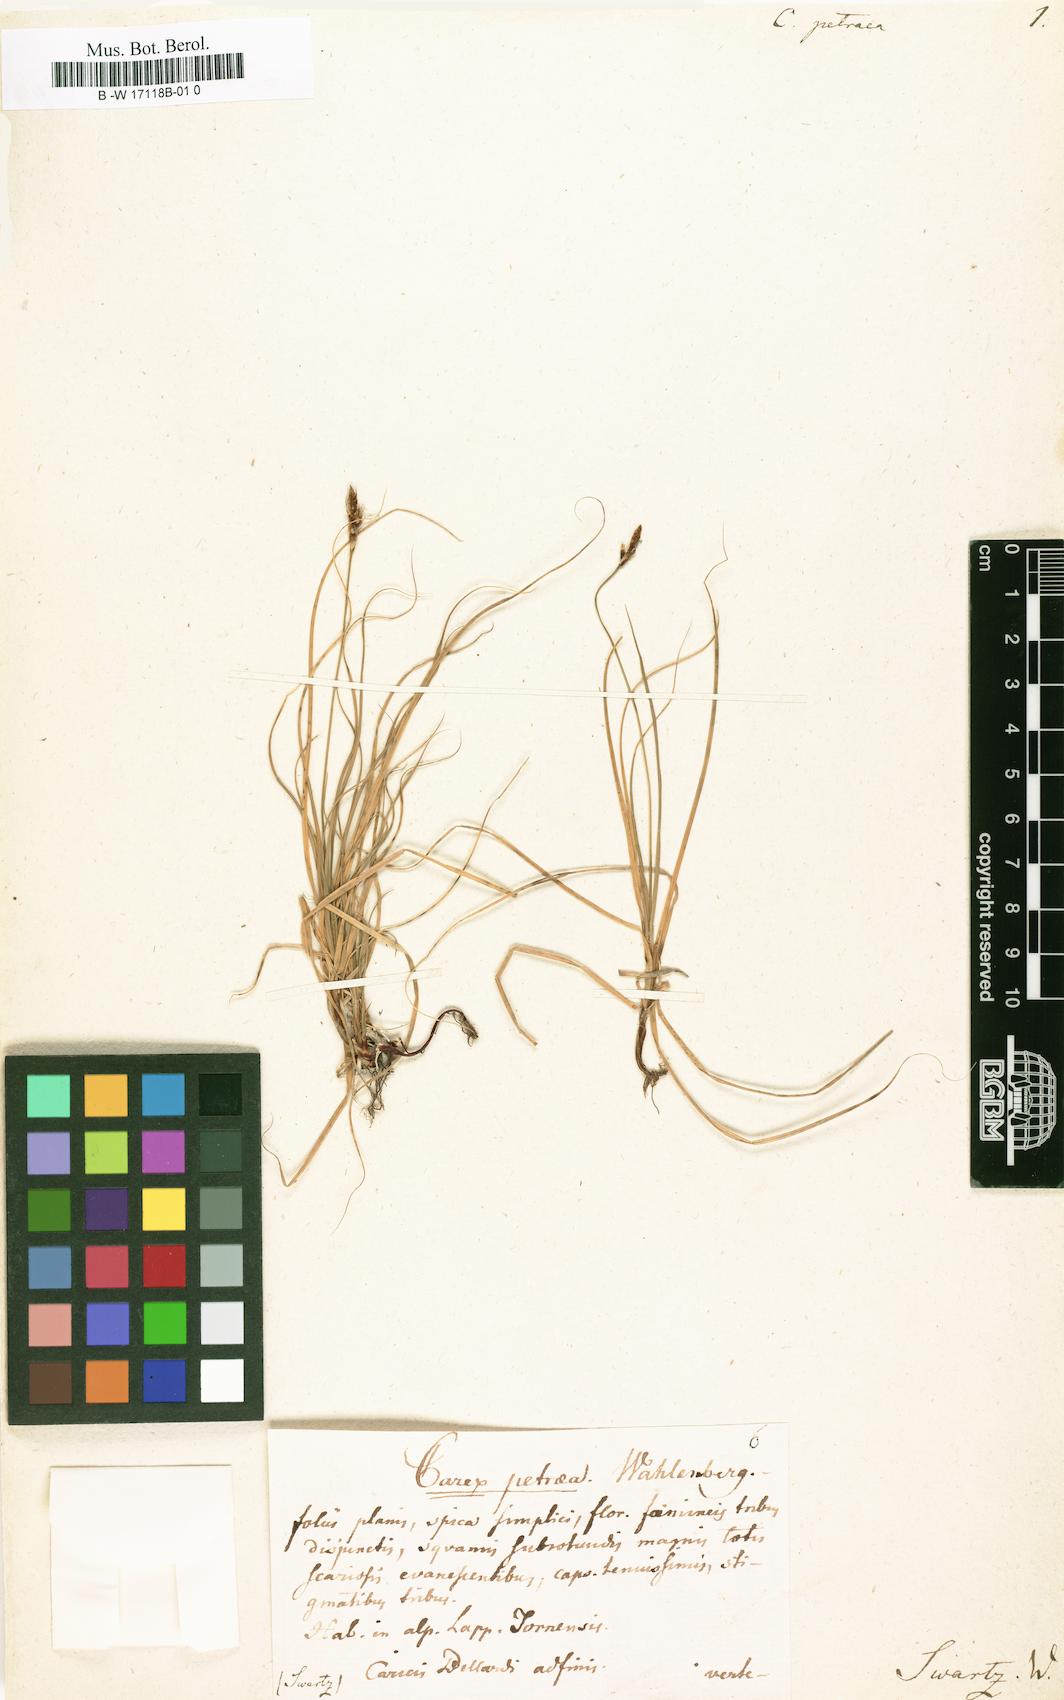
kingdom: Plantae
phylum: Tracheophyta
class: Liliopsida
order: Poales
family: Cyperaceae
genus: Carex
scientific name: Carex rupestris
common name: Rock sedge
